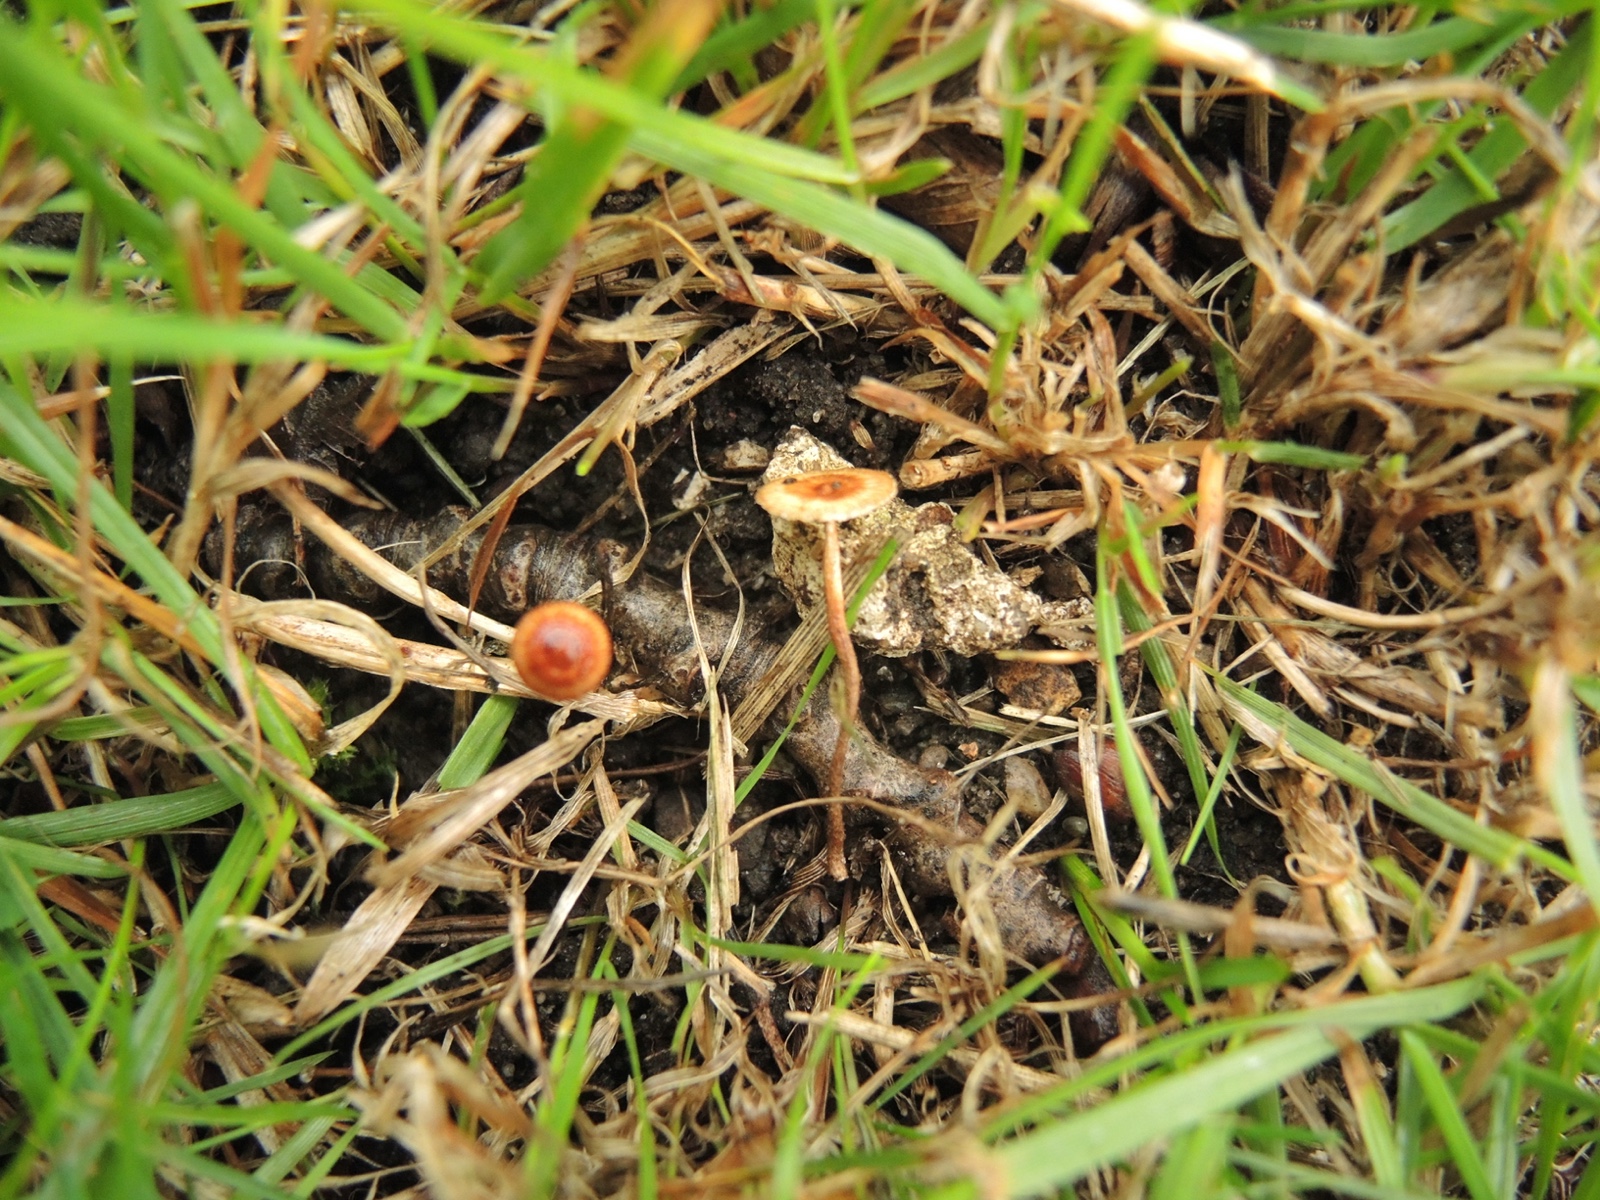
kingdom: Fungi
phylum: Basidiomycota
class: Agaricomycetes
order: Agaricales
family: Marasmiaceae
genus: Crinipellis
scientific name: Crinipellis scabella
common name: børstefod
